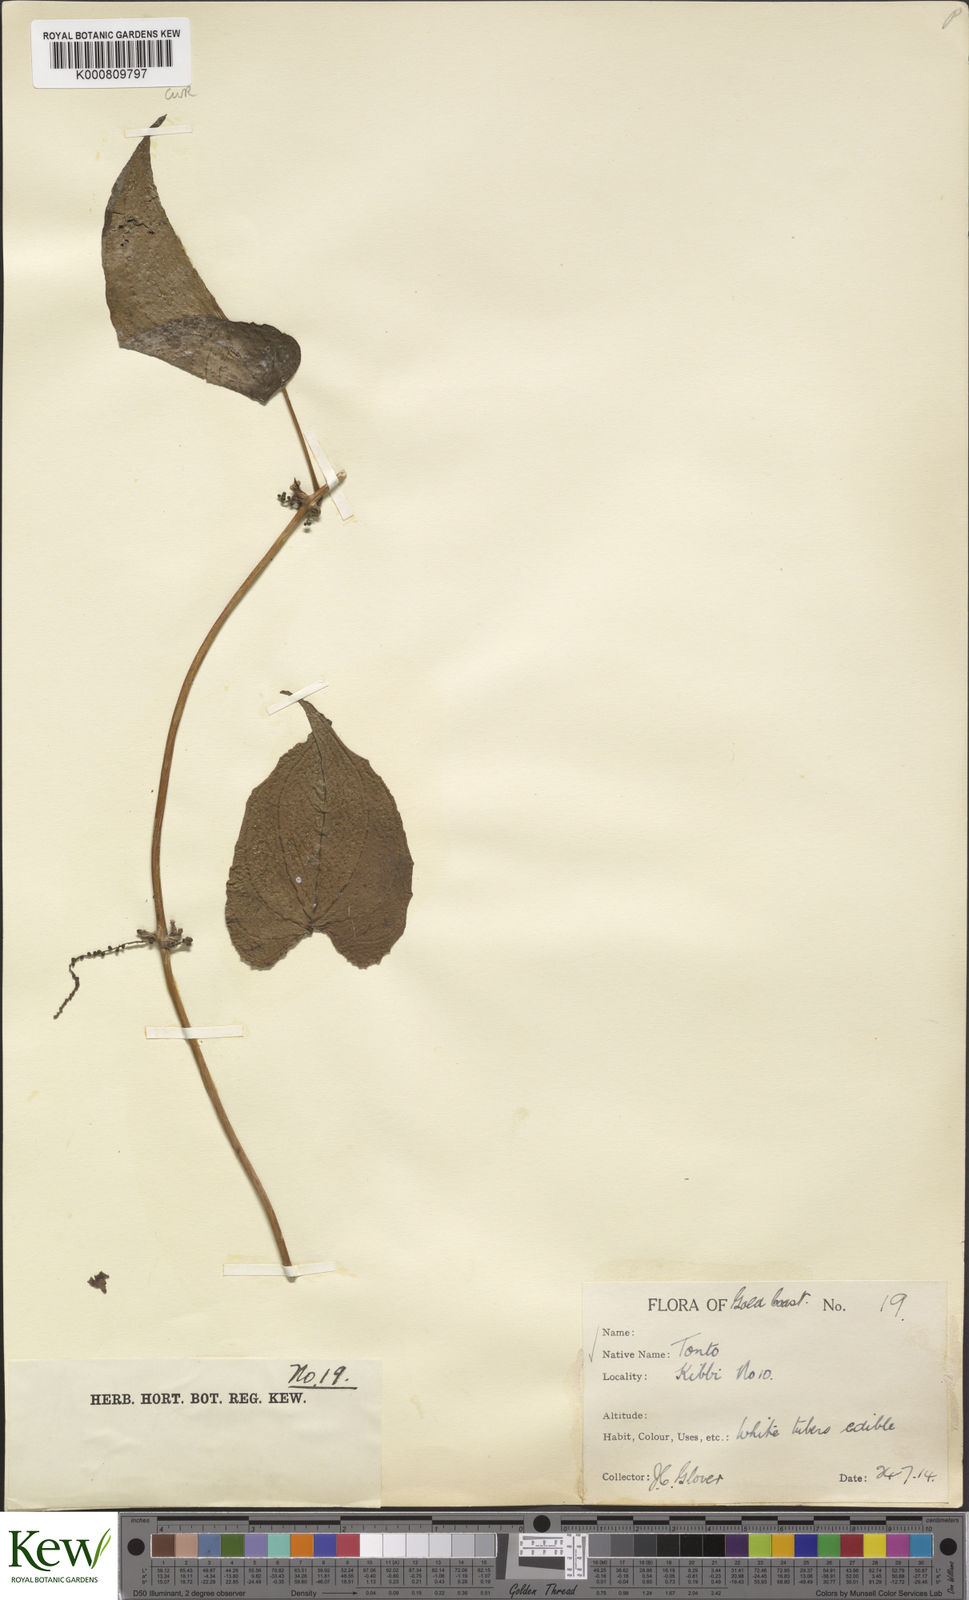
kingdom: Plantae
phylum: Tracheophyta
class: Liliopsida
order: Dioscoreales
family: Dioscoreaceae
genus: Dioscorea
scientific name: Dioscorea cayenensis
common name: Attoto yam
